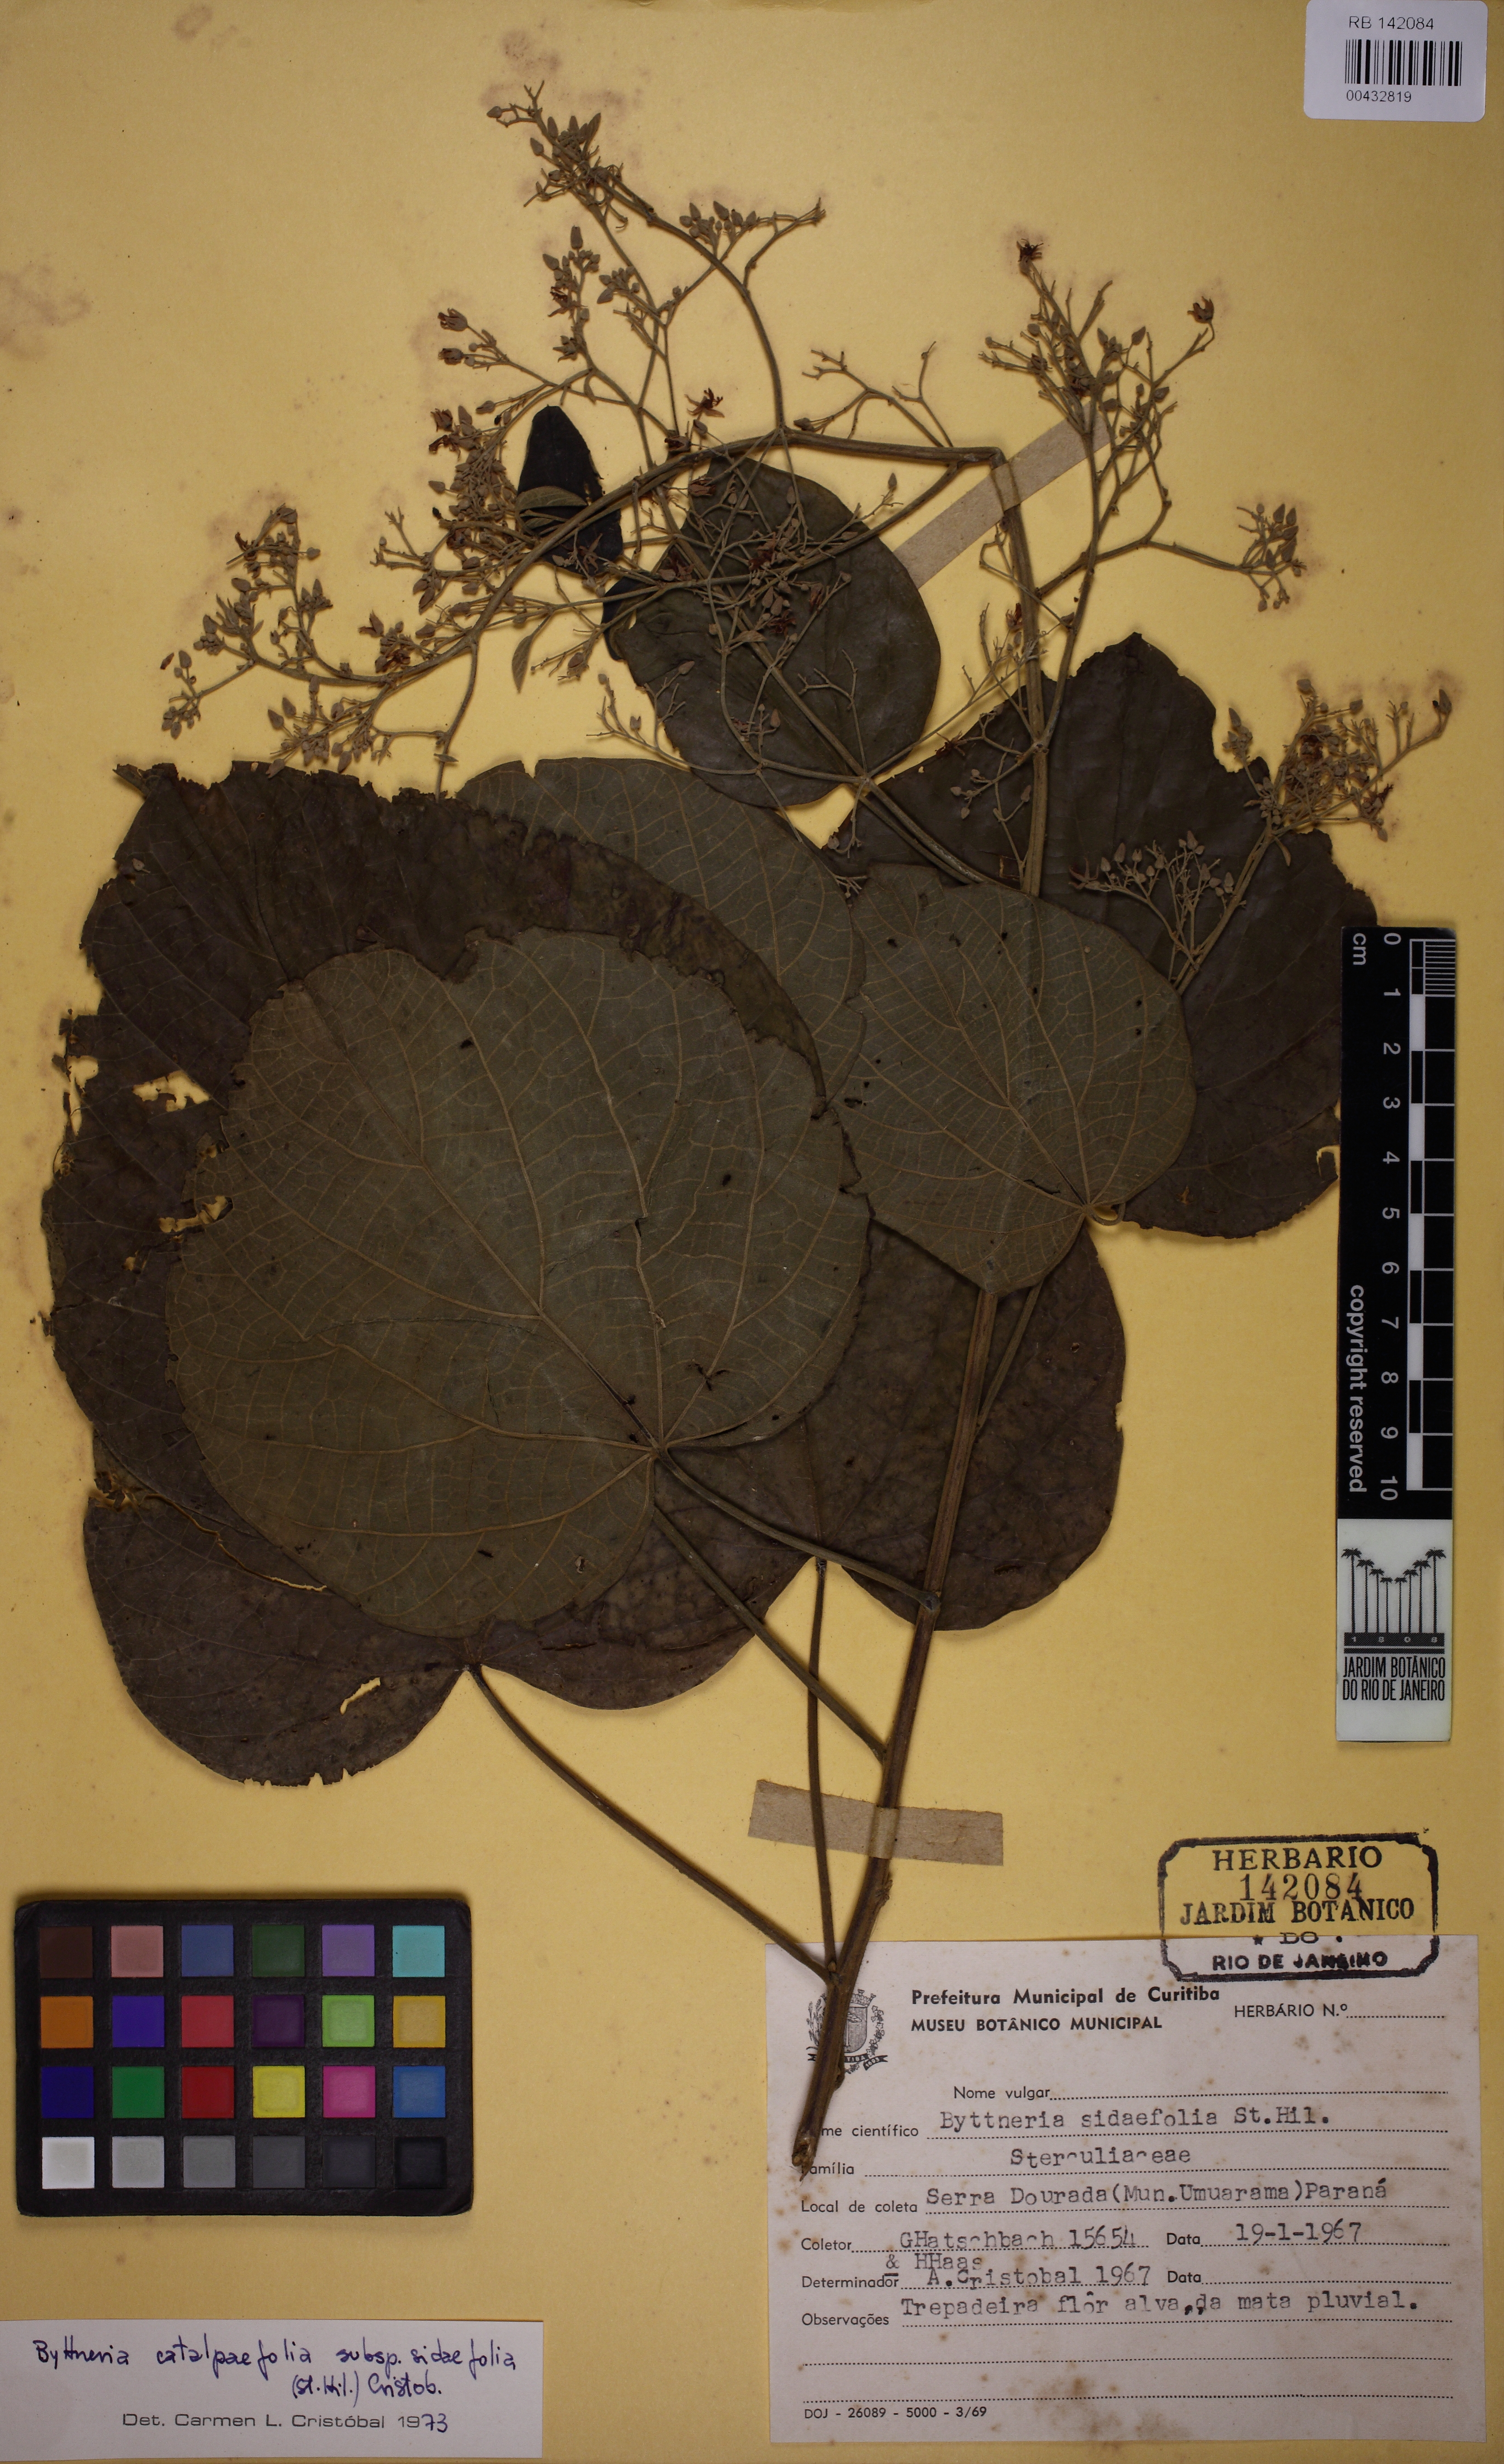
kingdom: Plantae
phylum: Tracheophyta
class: Magnoliopsida
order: Malvales
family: Malvaceae
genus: Byttneria
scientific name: Byttneria catalpifolia
